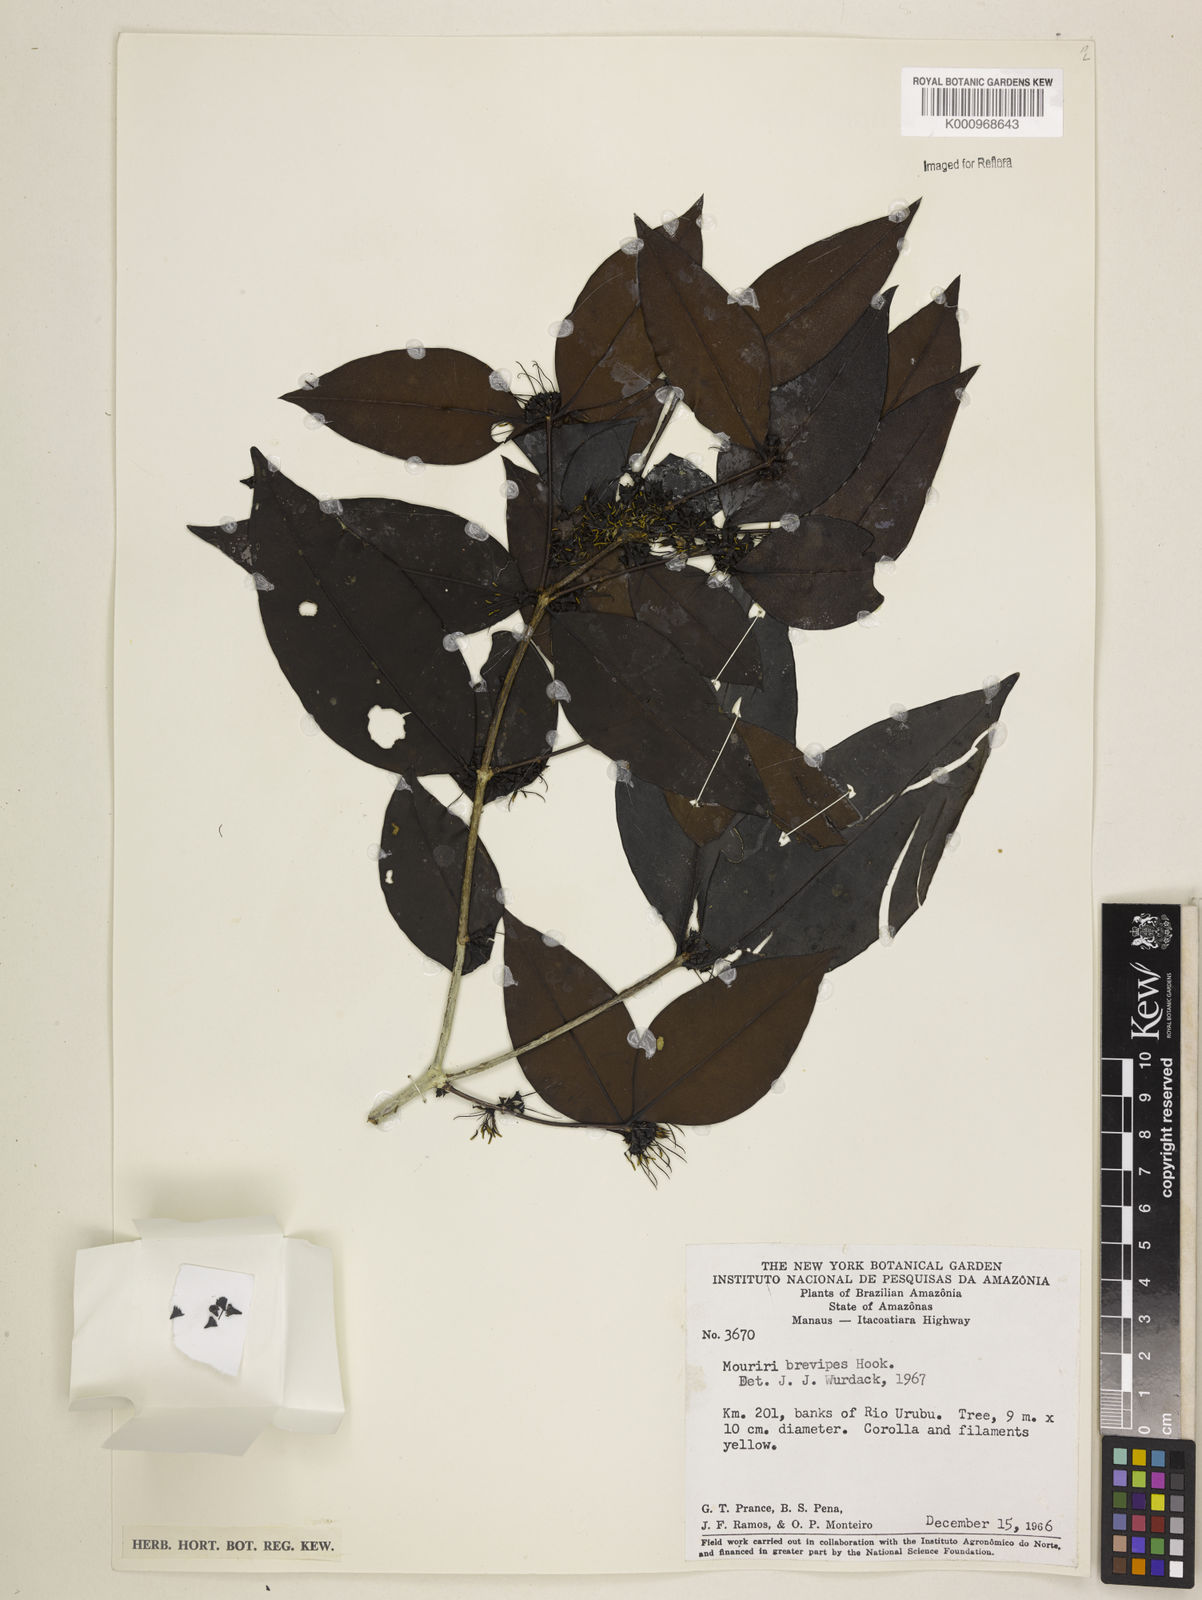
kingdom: Plantae
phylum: Tracheophyta
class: Magnoliopsida
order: Myrtales
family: Melastomataceae
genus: Mouriri
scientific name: Mouriri
